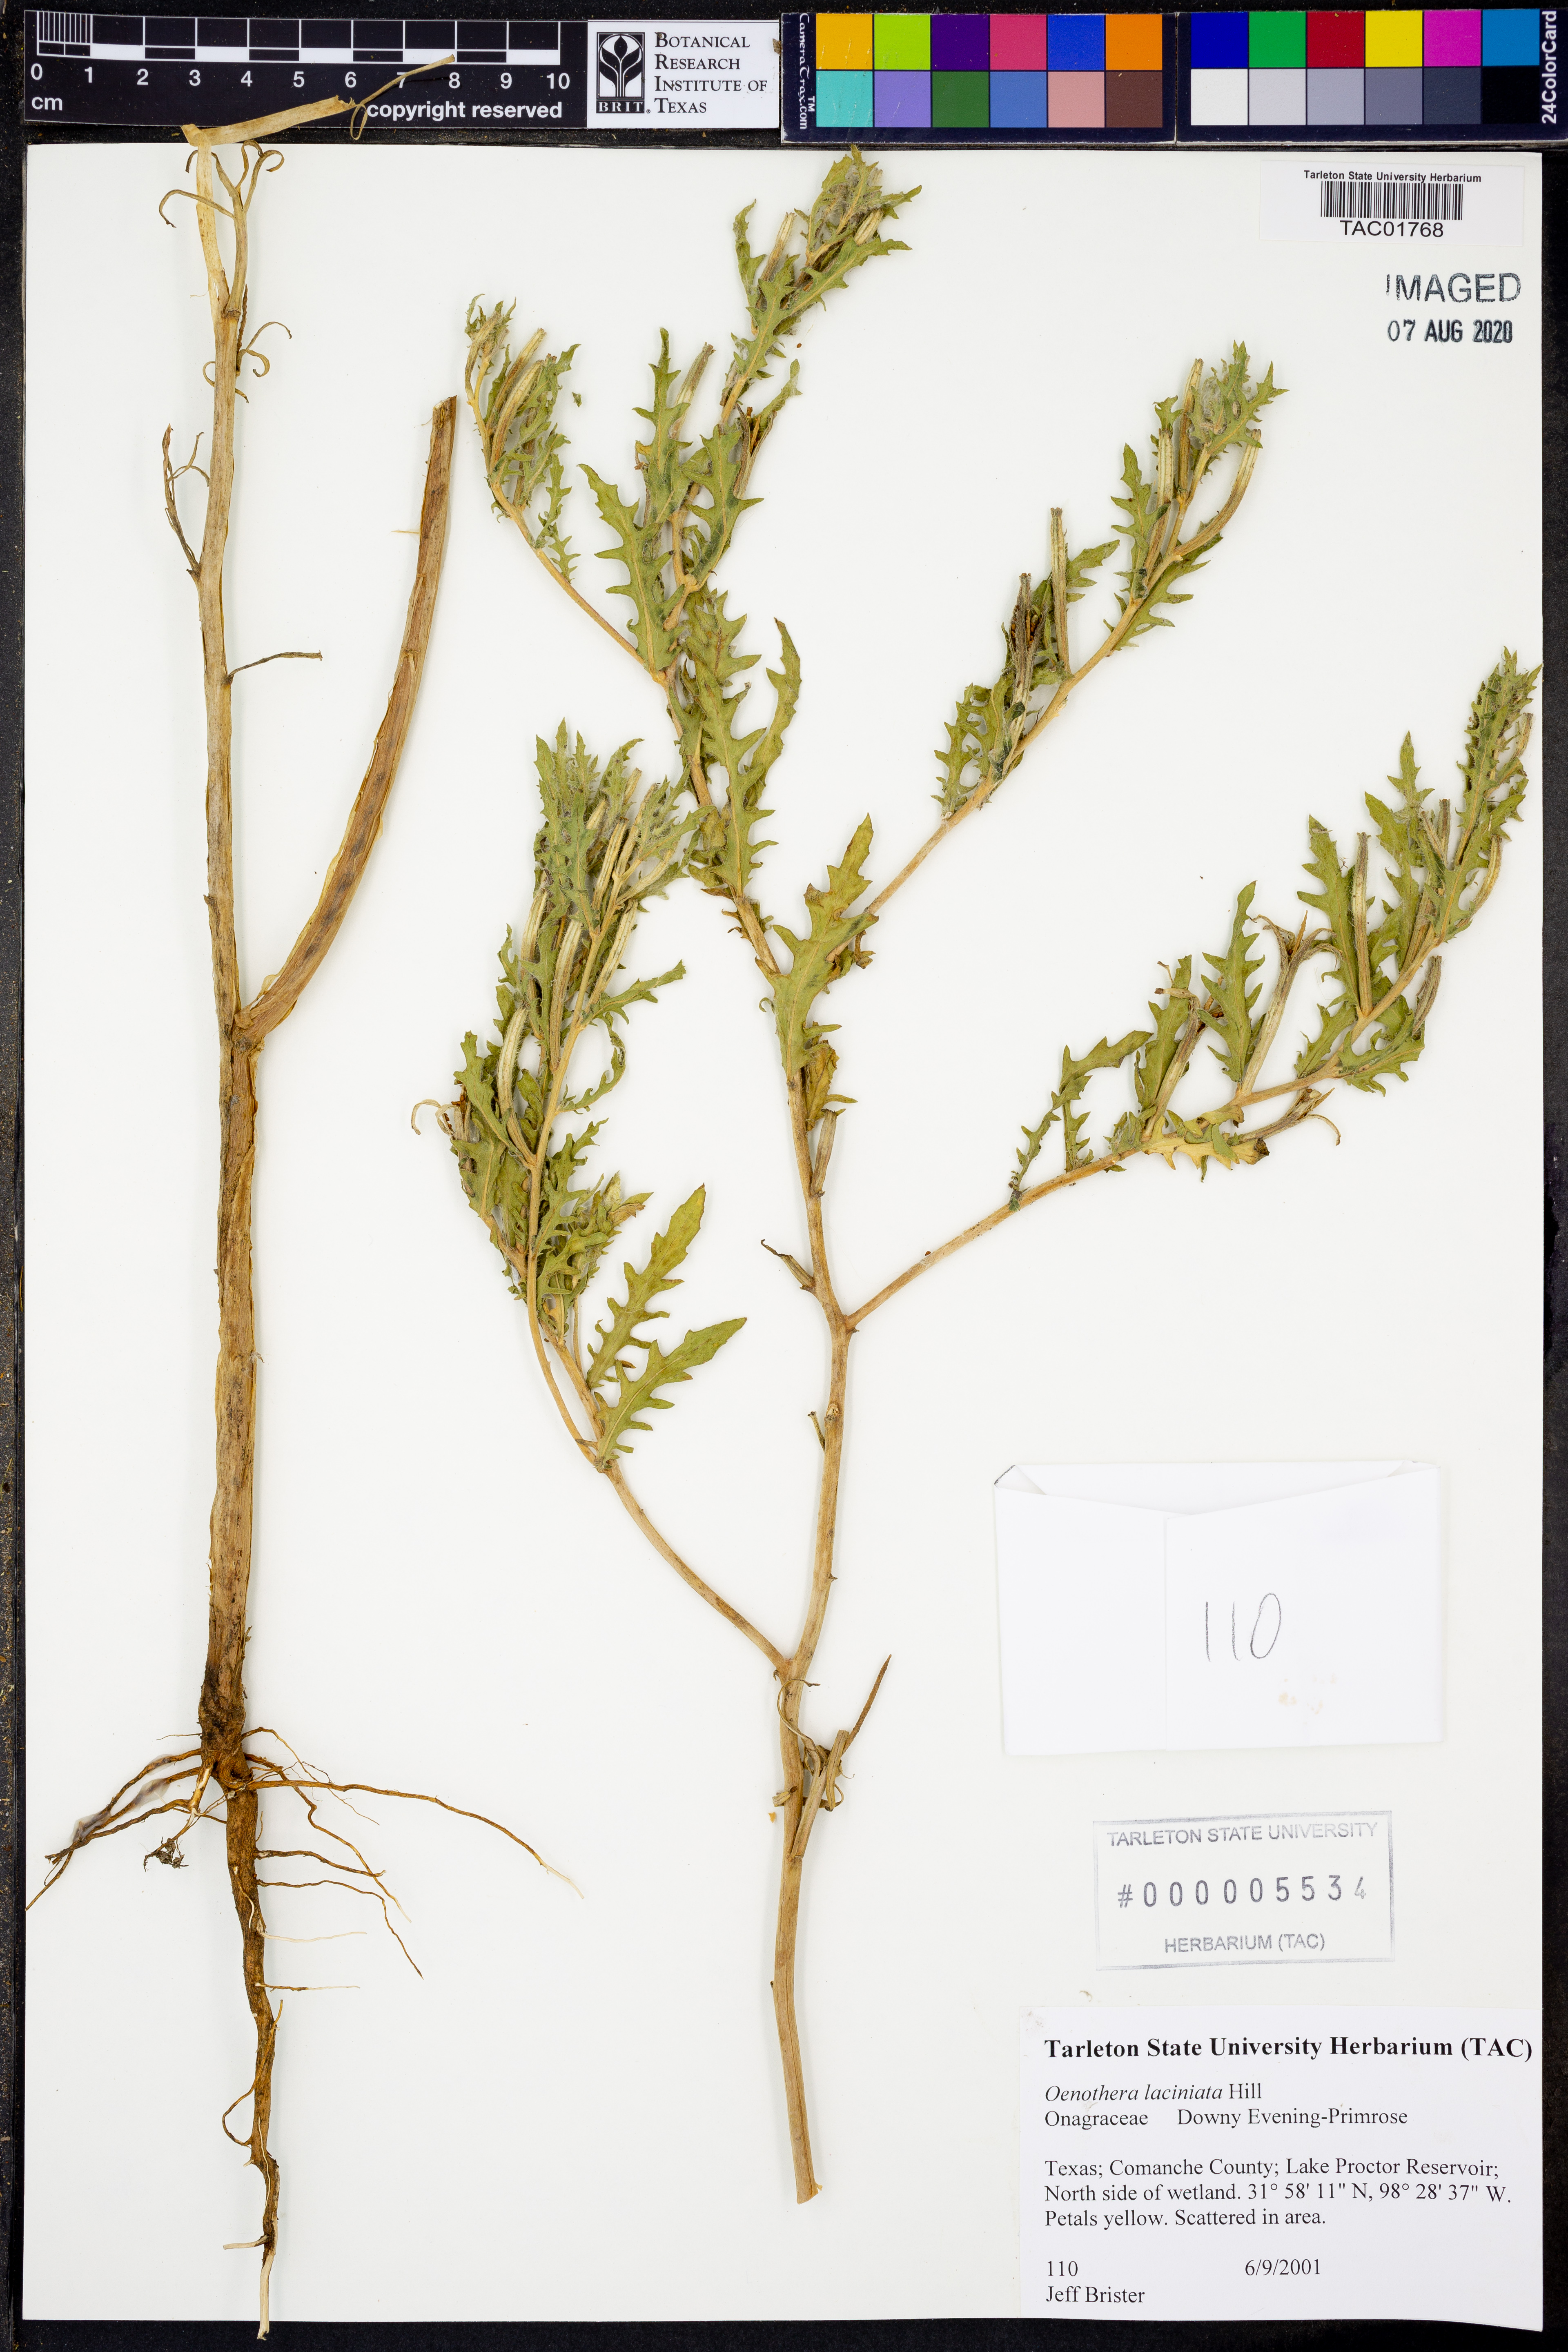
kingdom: Plantae
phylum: Tracheophyta
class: Magnoliopsida
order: Myrtales
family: Onagraceae
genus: Oenothera
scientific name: Oenothera laciniata
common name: Cut-leaved evening-primrose
